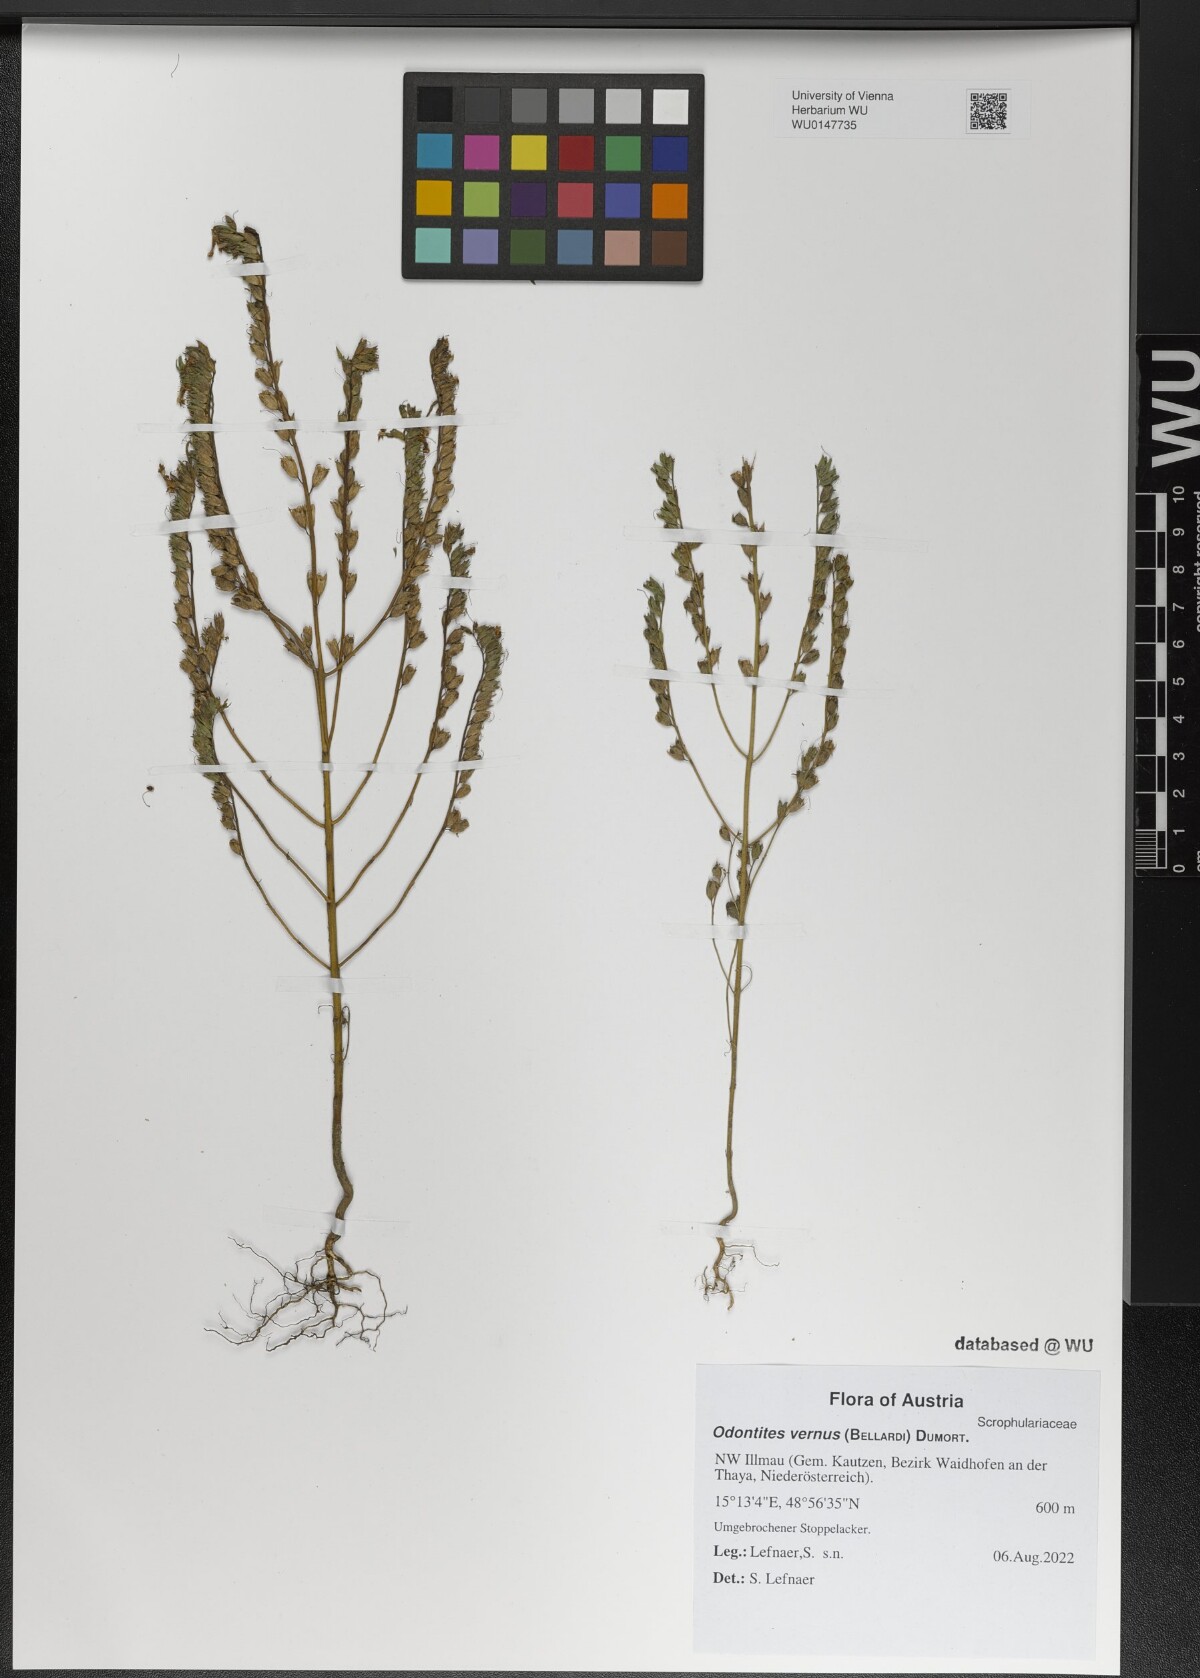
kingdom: Plantae
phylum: Tracheophyta
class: Magnoliopsida
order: Lamiales
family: Orobanchaceae
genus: Odontites
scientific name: Odontites vernus
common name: Red bartsia
